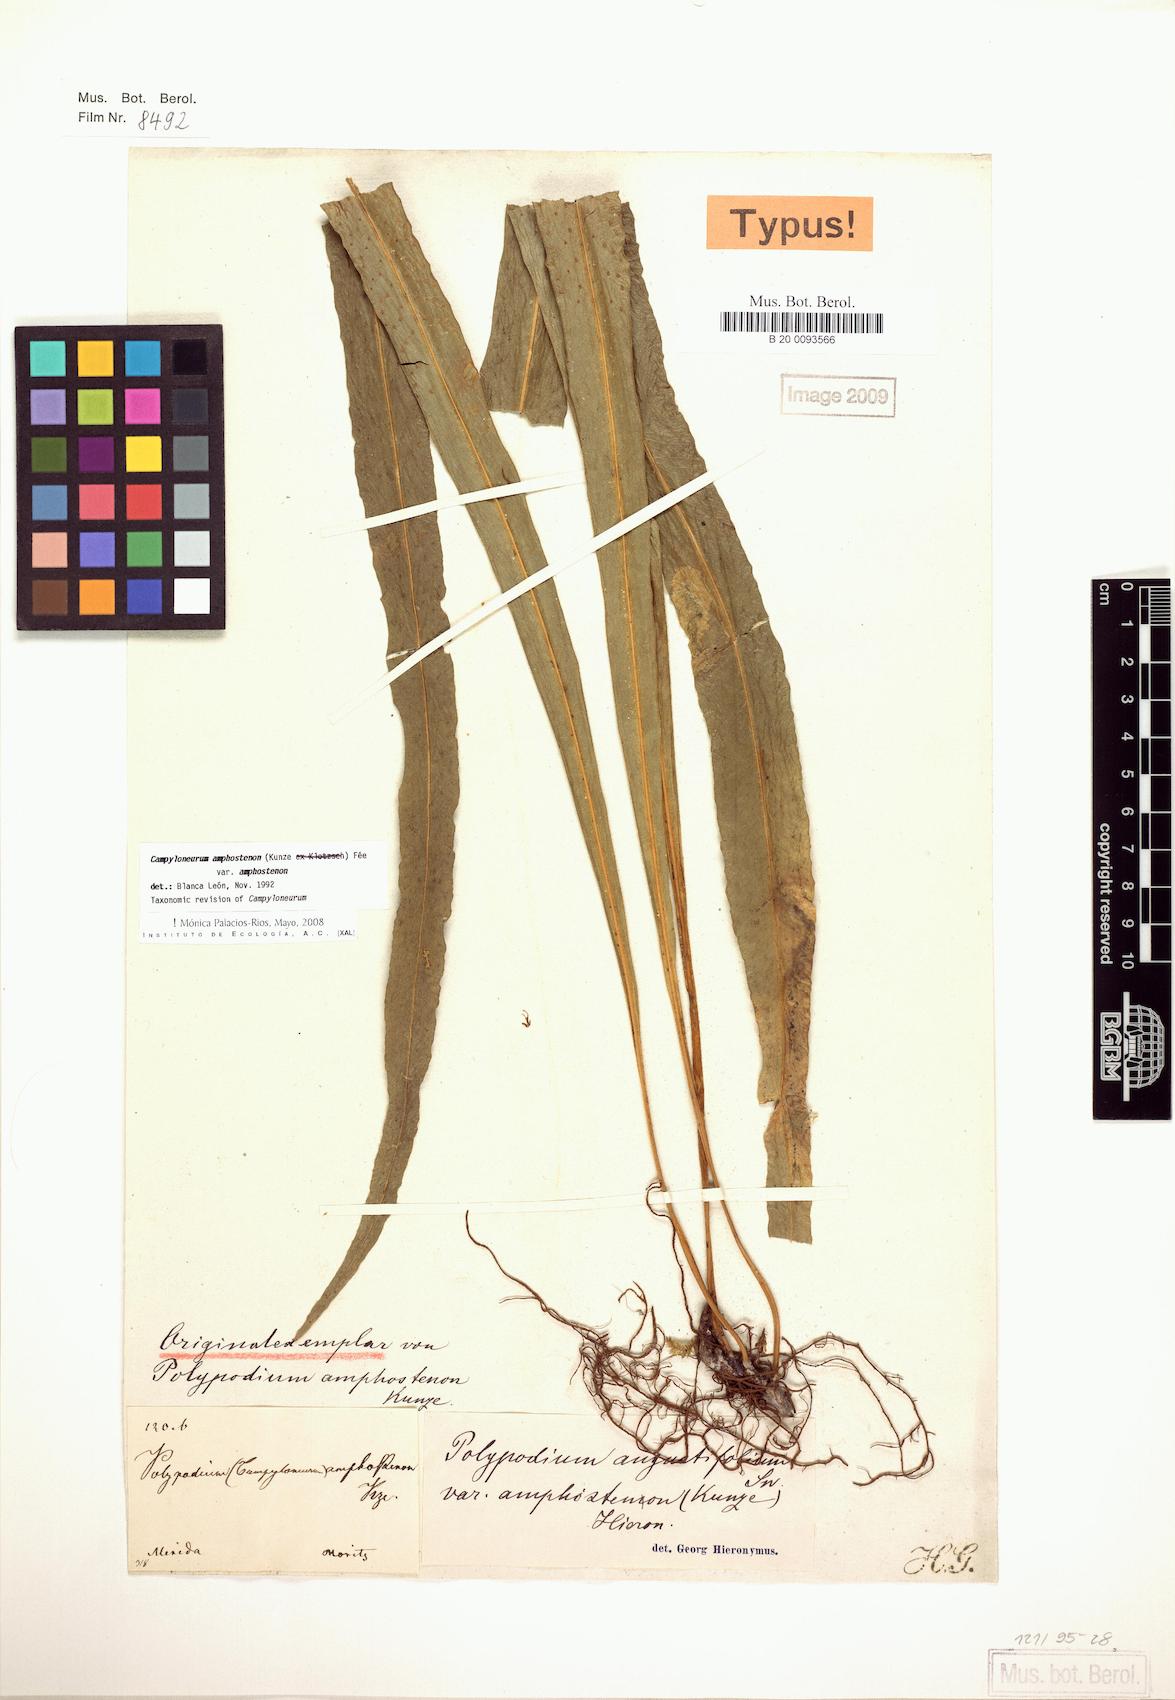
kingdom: Plantae
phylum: Tracheophyta
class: Polypodiopsida
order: Polypodiales
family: Polypodiaceae
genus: Campyloneurum
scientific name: Campyloneurum amphostenon
